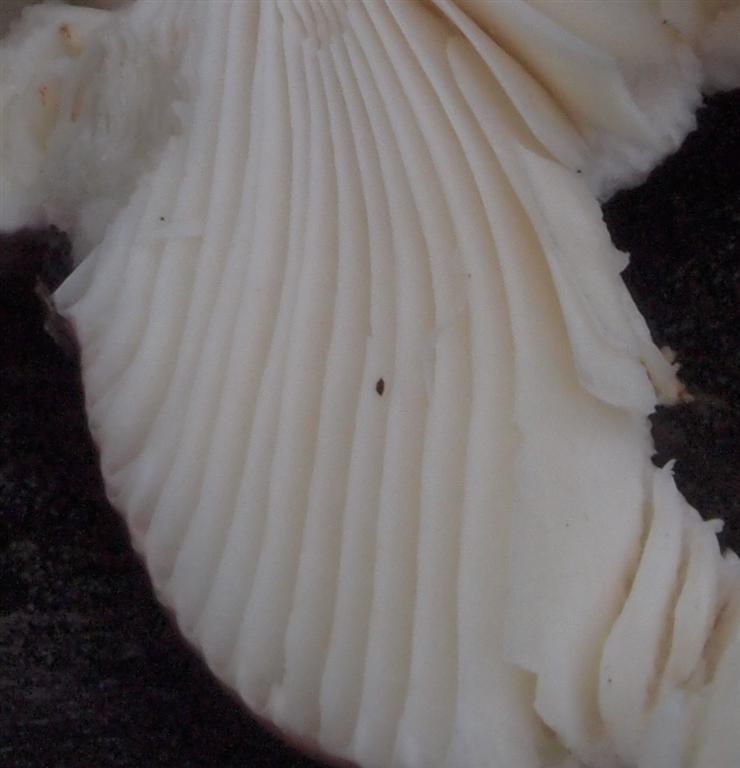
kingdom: Fungi
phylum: Basidiomycota
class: Agaricomycetes
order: Russulales
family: Russulaceae
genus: Russula
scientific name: Russula
